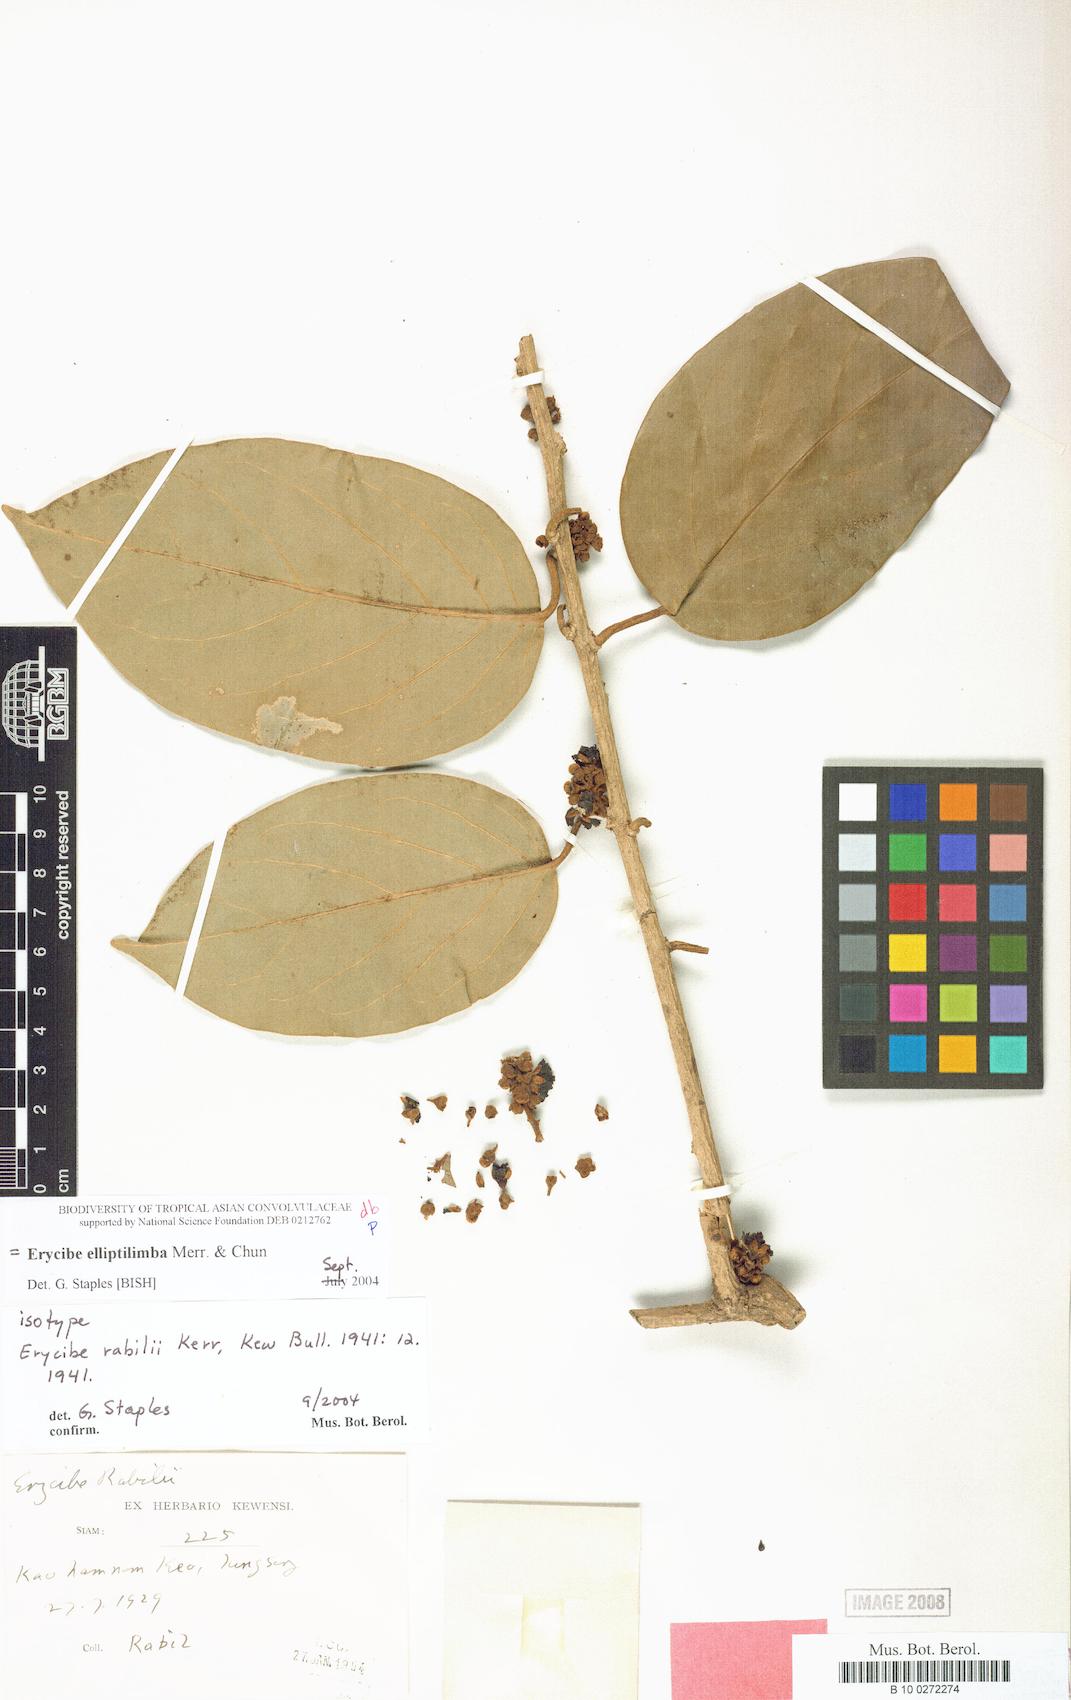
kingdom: Plantae
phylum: Tracheophyta
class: Magnoliopsida
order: Solanales
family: Convolvulaceae
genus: Erycibe
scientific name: Erycibe elliptilimba
